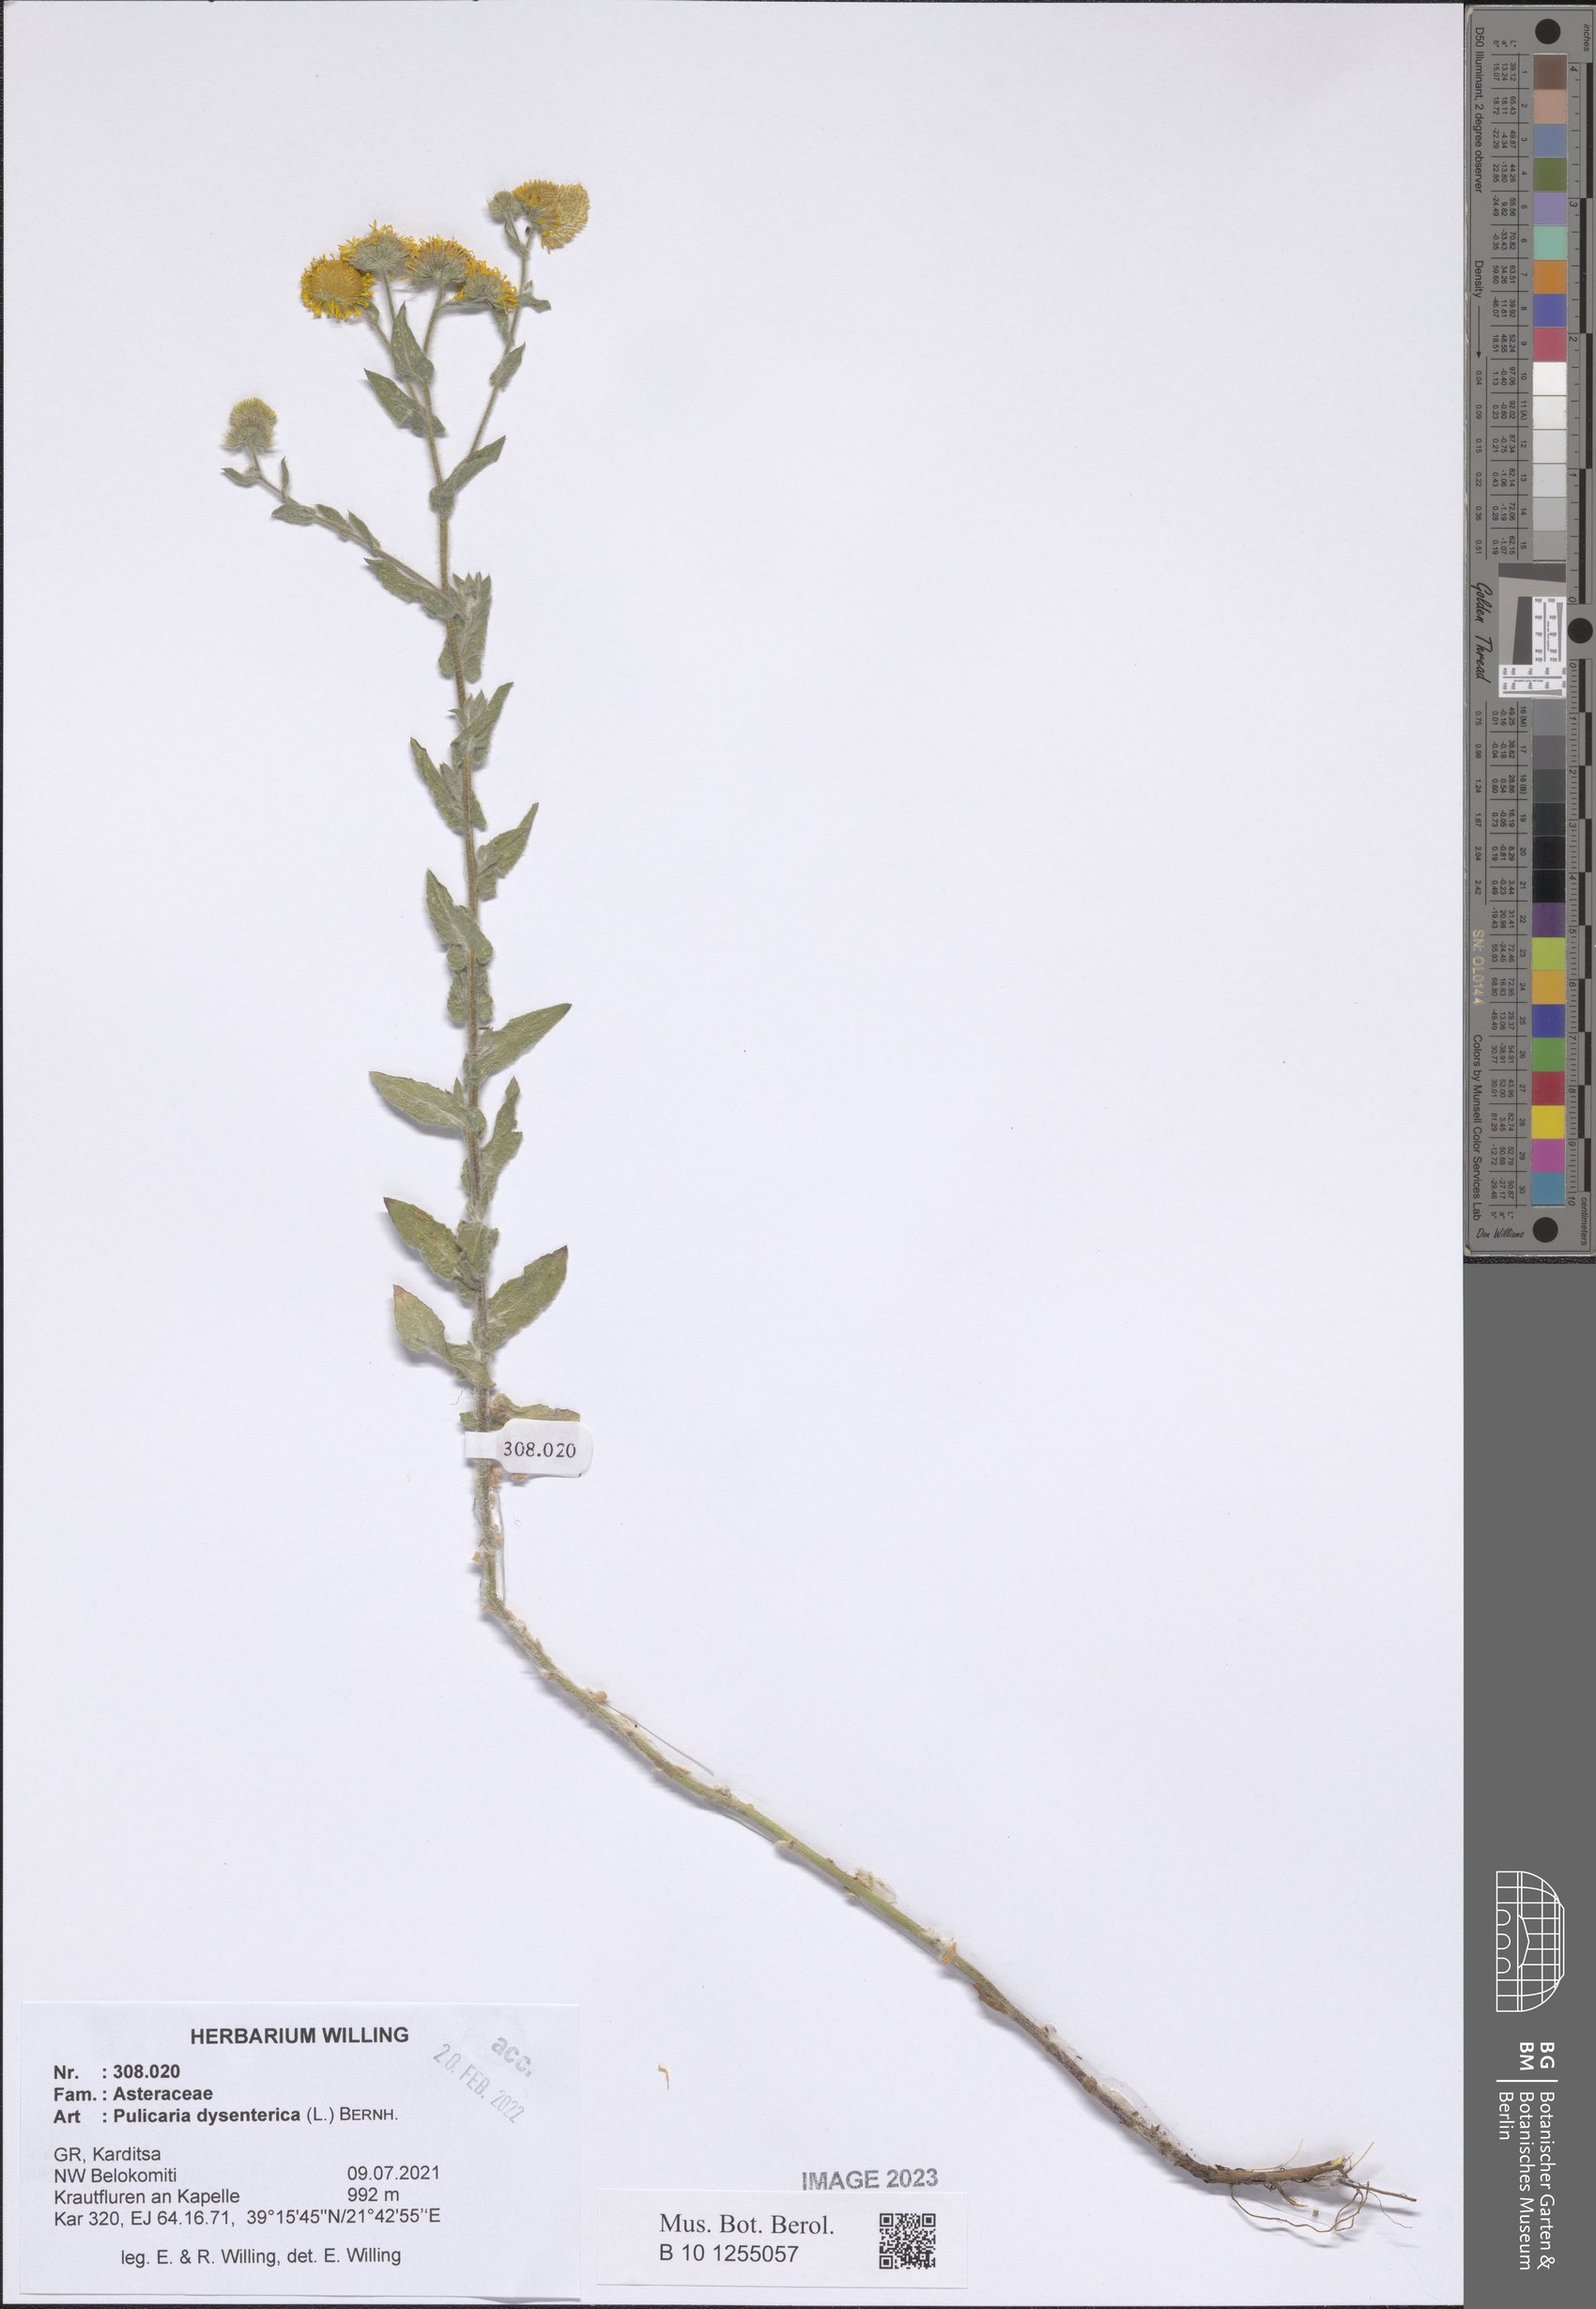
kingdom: Plantae
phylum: Tracheophyta
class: Magnoliopsida
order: Asterales
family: Asteraceae
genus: Pulicaria
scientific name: Pulicaria dysenterica
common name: Common fleabane
